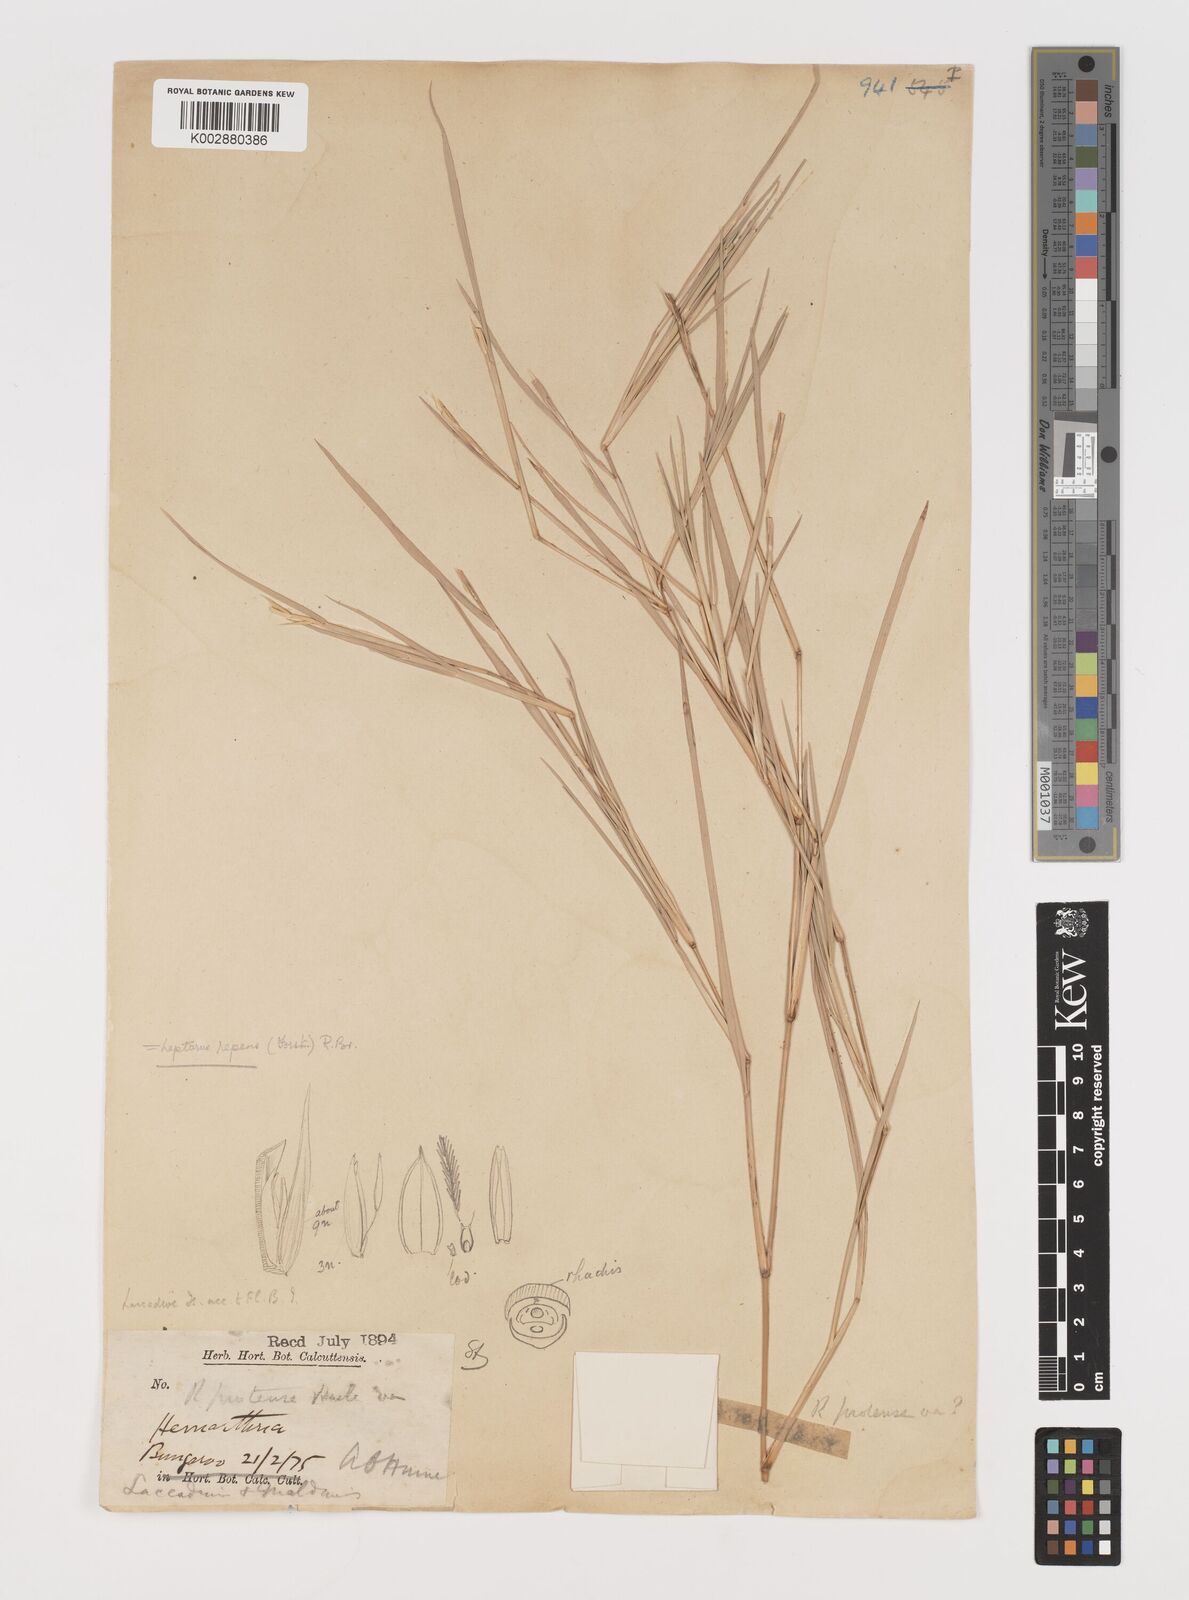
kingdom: Plantae
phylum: Tracheophyta
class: Liliopsida
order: Poales
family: Poaceae
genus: Lepturus
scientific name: Lepturus repens
